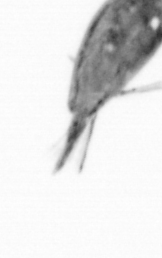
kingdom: Animalia
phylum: Arthropoda
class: Maxillopoda
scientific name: Maxillopoda
